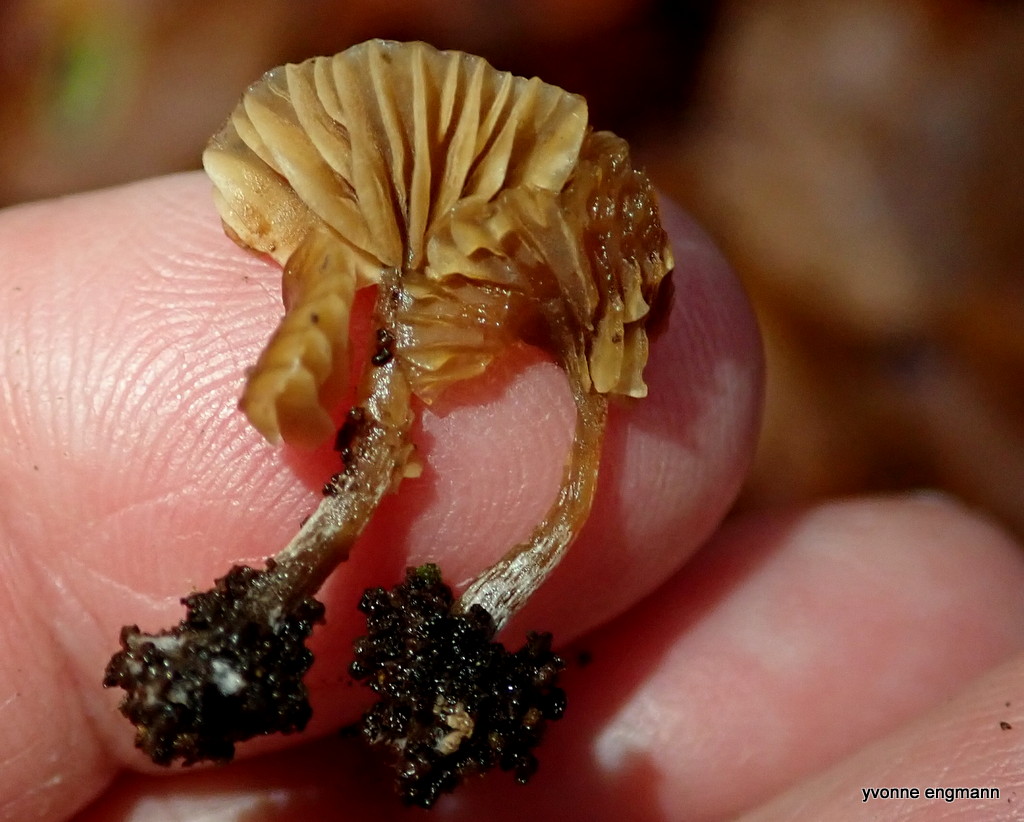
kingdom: Fungi
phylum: Basidiomycota
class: Agaricomycetes
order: Agaricales
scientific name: Agaricales
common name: champignonordenen
